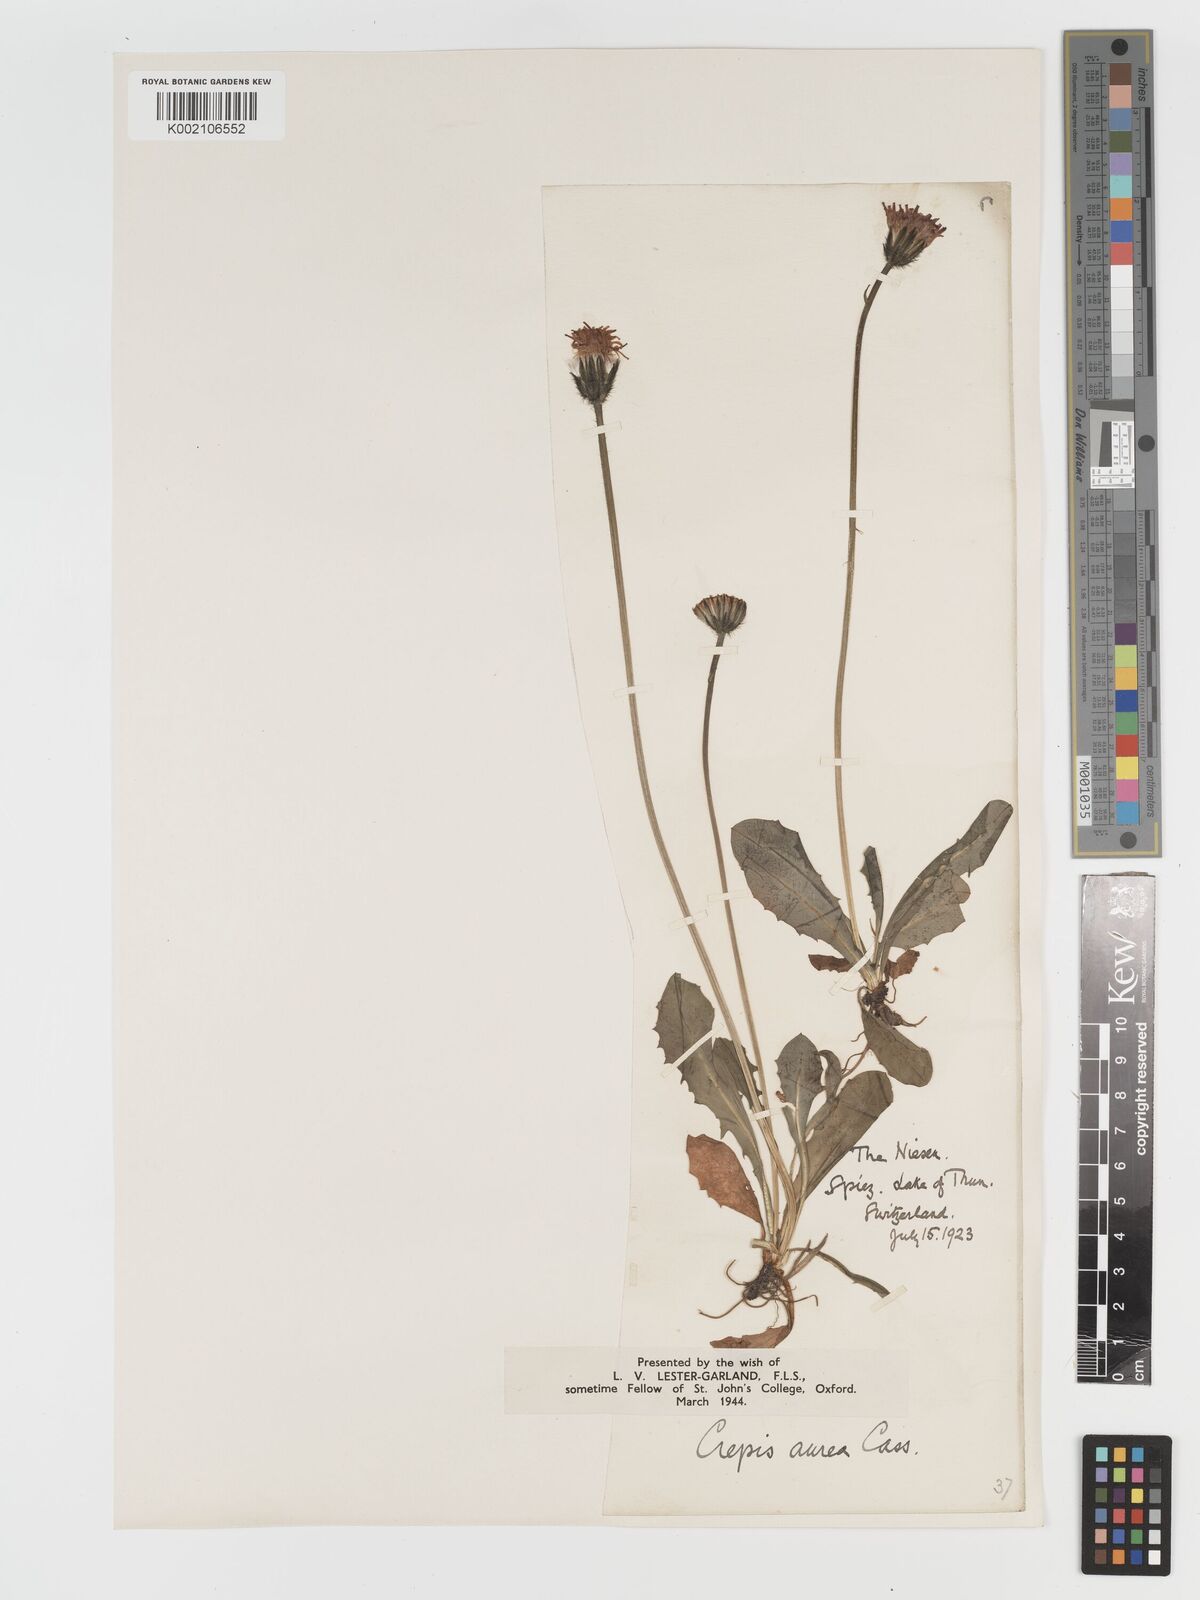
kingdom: Plantae
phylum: Tracheophyta
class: Magnoliopsida
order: Asterales
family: Asteraceae
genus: Crepis
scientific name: Crepis aurea
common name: Golden hawk's-beard
